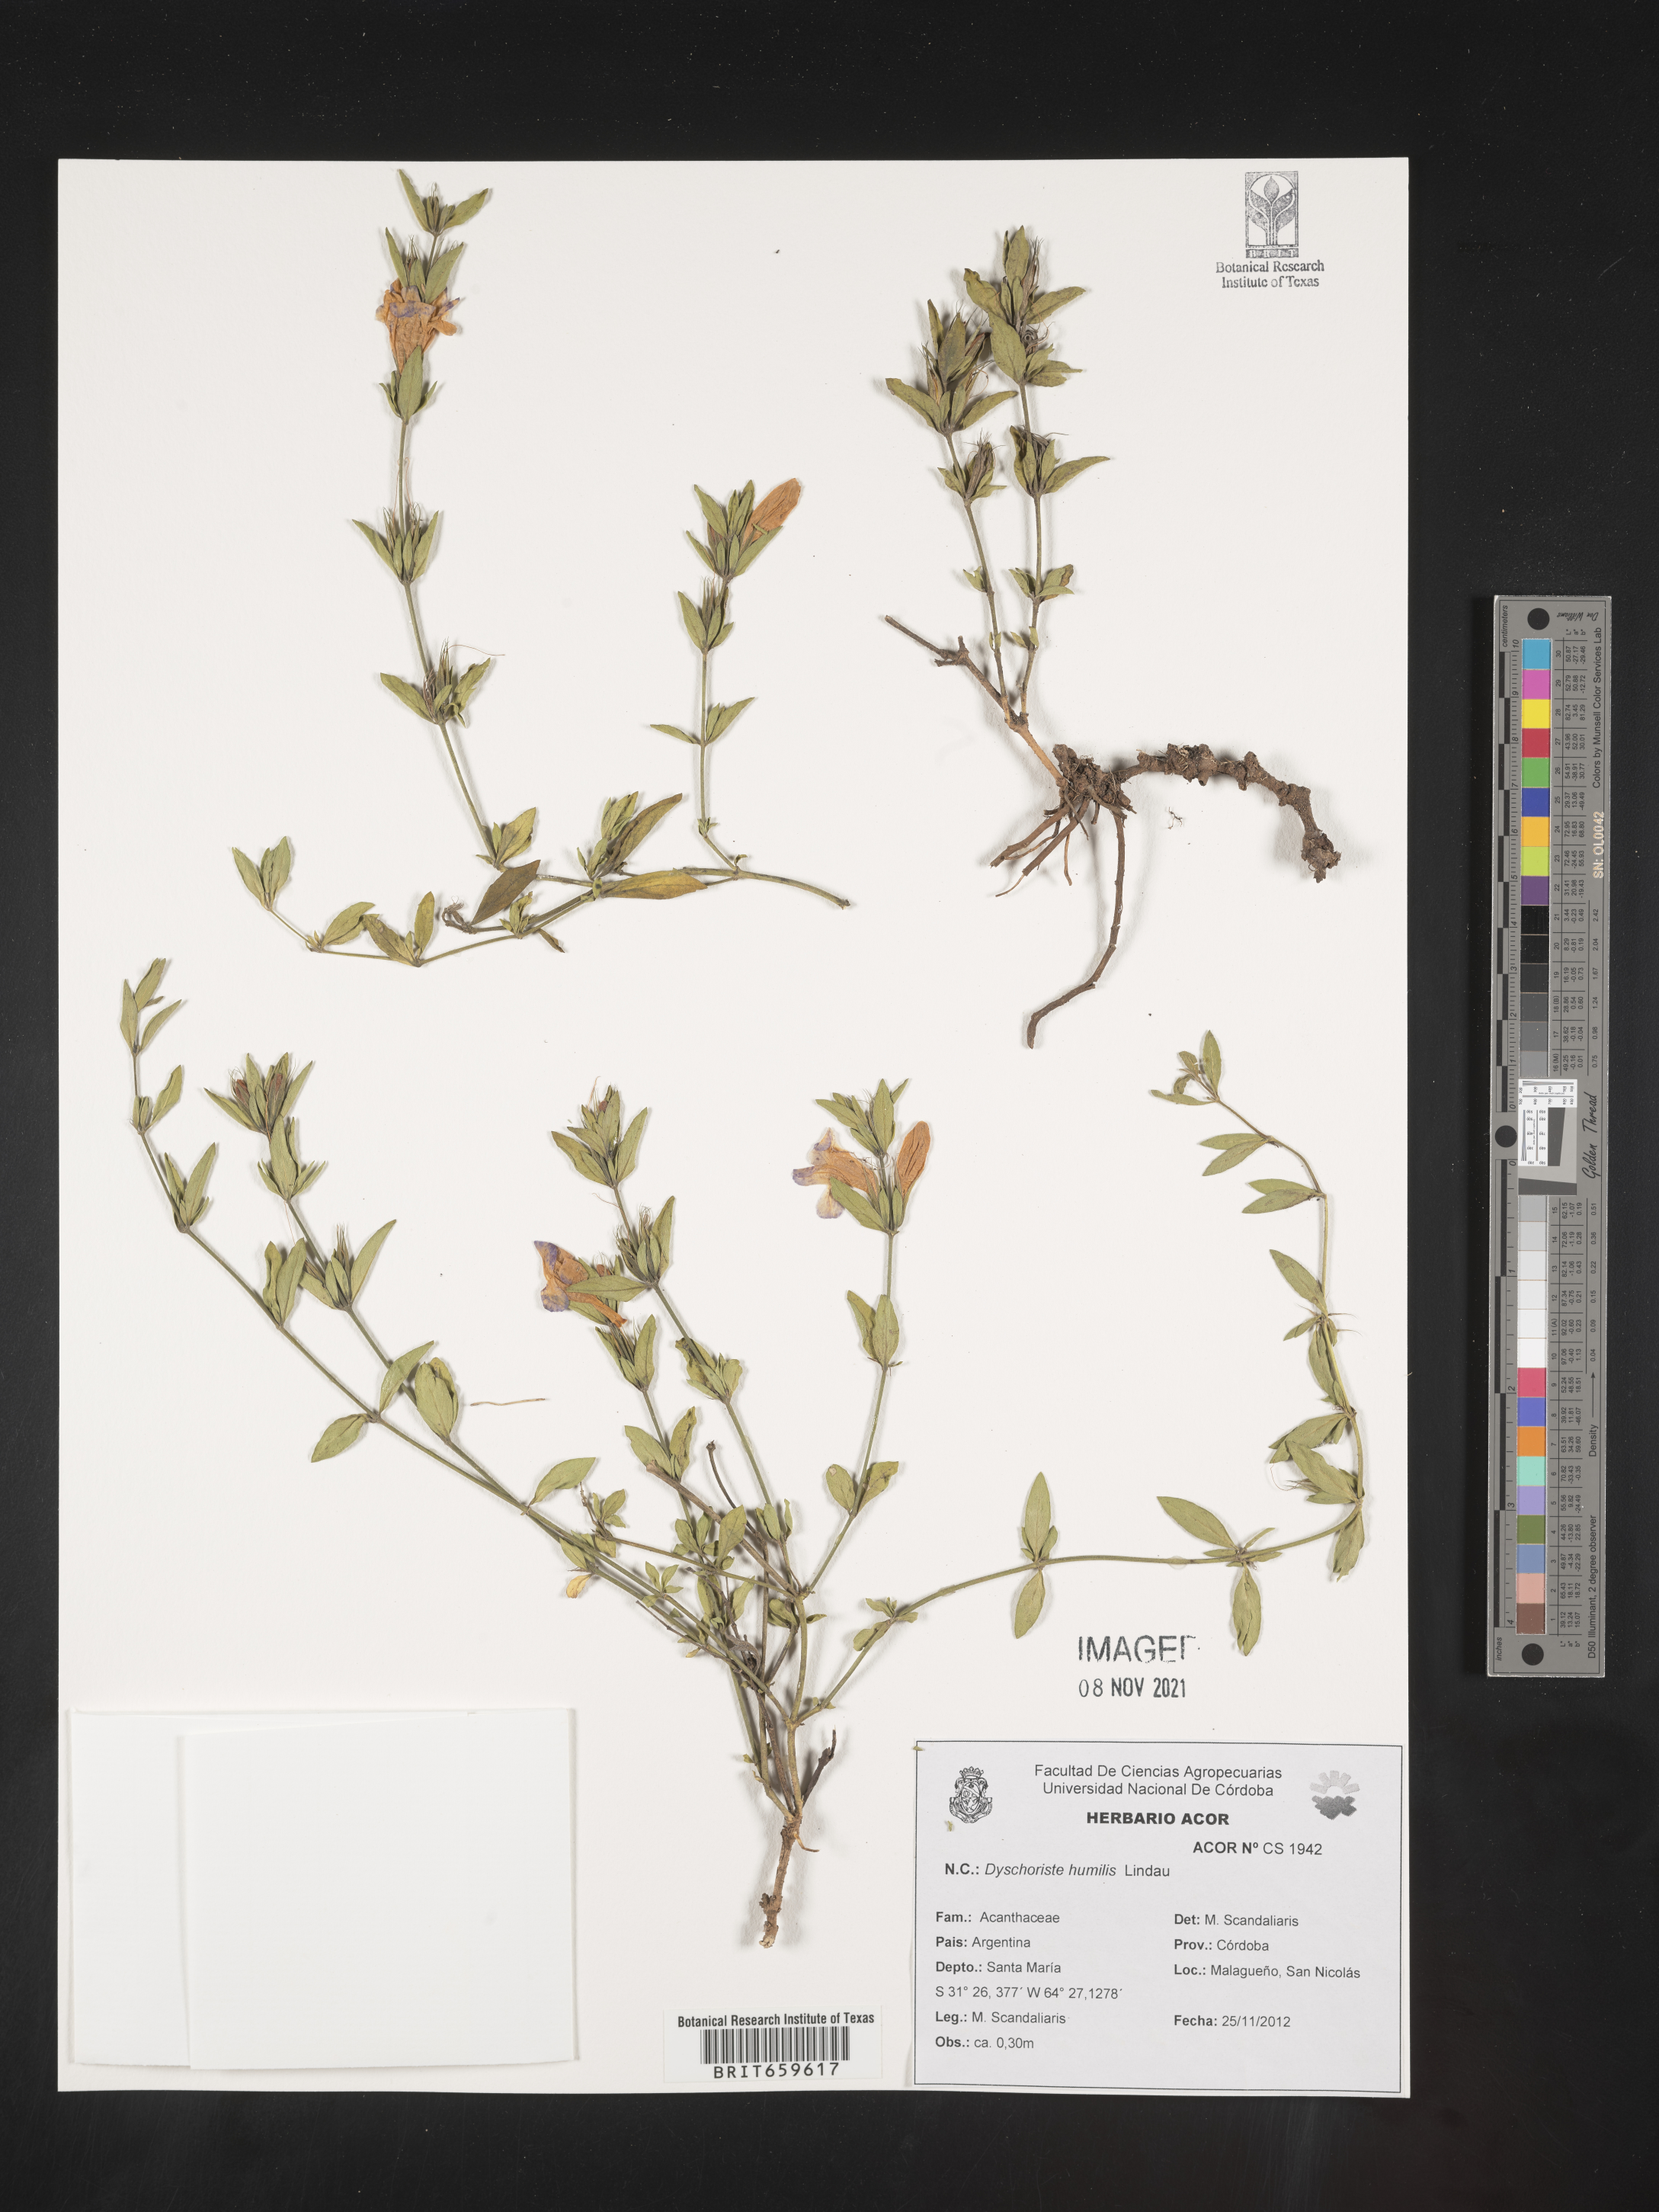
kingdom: Plantae
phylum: Tracheophyta
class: Magnoliopsida
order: Lamiales
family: Acanthaceae
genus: Dyschoriste
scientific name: Dyschoriste
